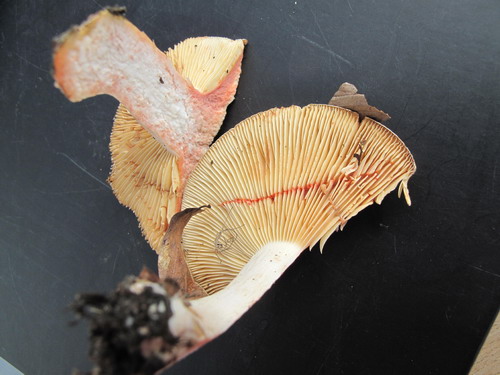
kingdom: Fungi
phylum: Basidiomycota
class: Agaricomycetes
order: Russulales
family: Russulaceae
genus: Lactarius
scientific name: Lactarius acris
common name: rosamælket mælkehat
